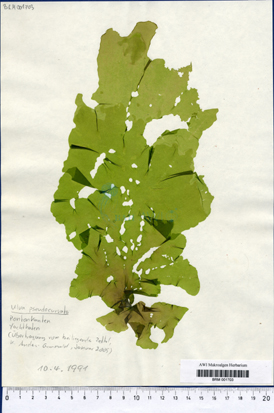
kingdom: Plantae
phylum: Chlorophyta
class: Ulvophyceae
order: Ulvales
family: Ulvaceae
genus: Ulva
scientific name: Ulva pseudocurvata
